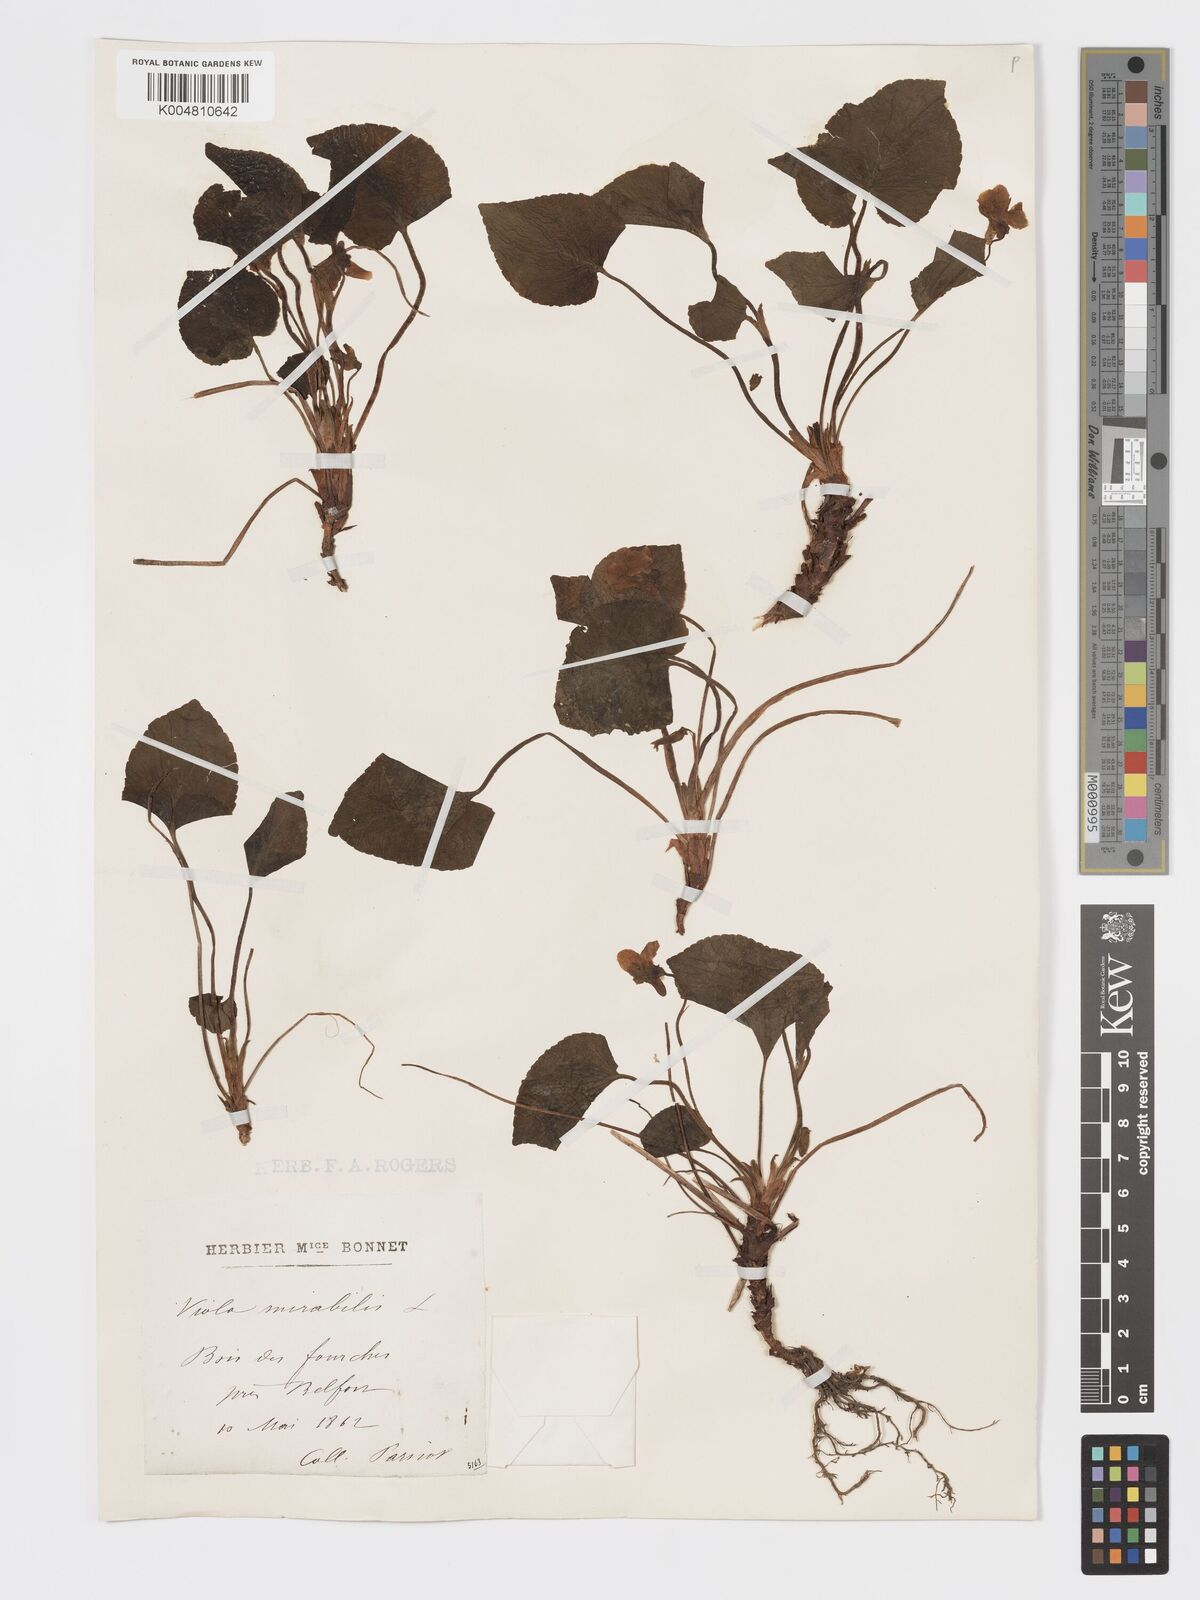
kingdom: Plantae
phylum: Tracheophyta
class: Magnoliopsida
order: Malpighiales
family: Violaceae
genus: Viola
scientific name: Viola mirabilis
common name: Wonder violet
